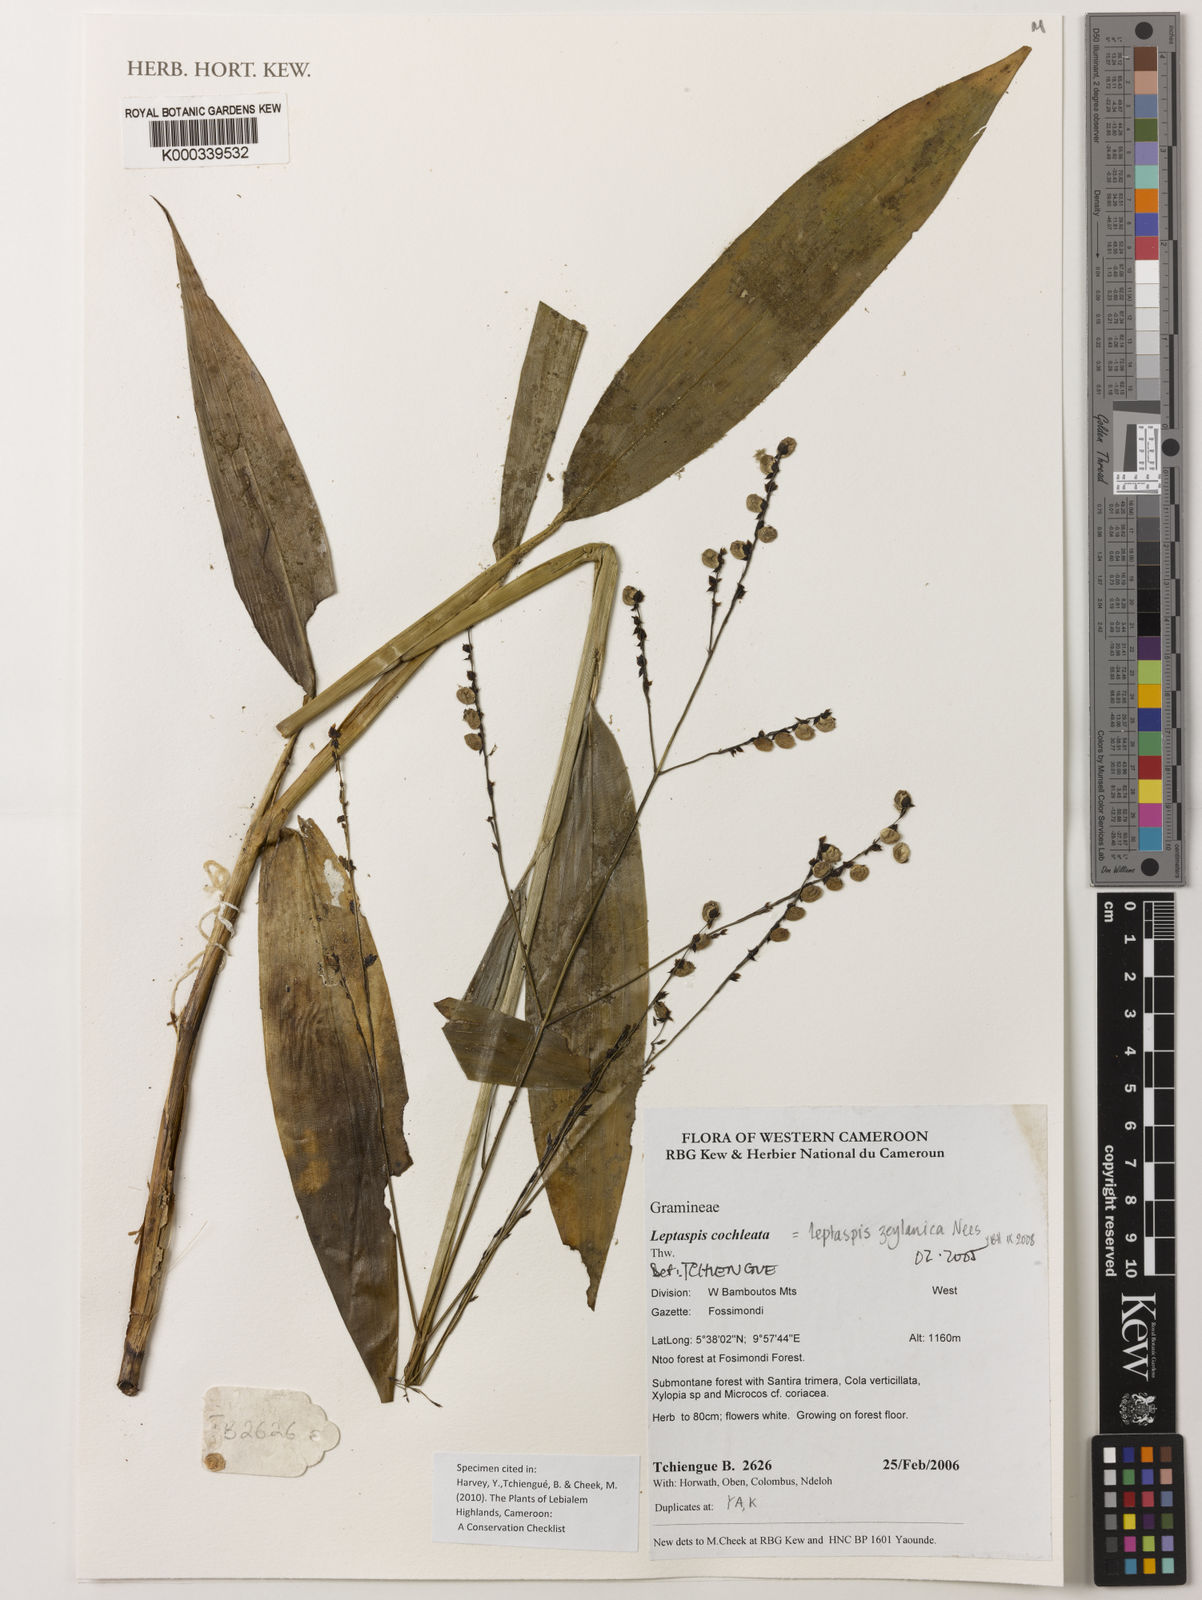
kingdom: Plantae
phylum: Tracheophyta
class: Liliopsida
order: Poales
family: Poaceae
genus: Leptaspis
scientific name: Leptaspis zeylanica
